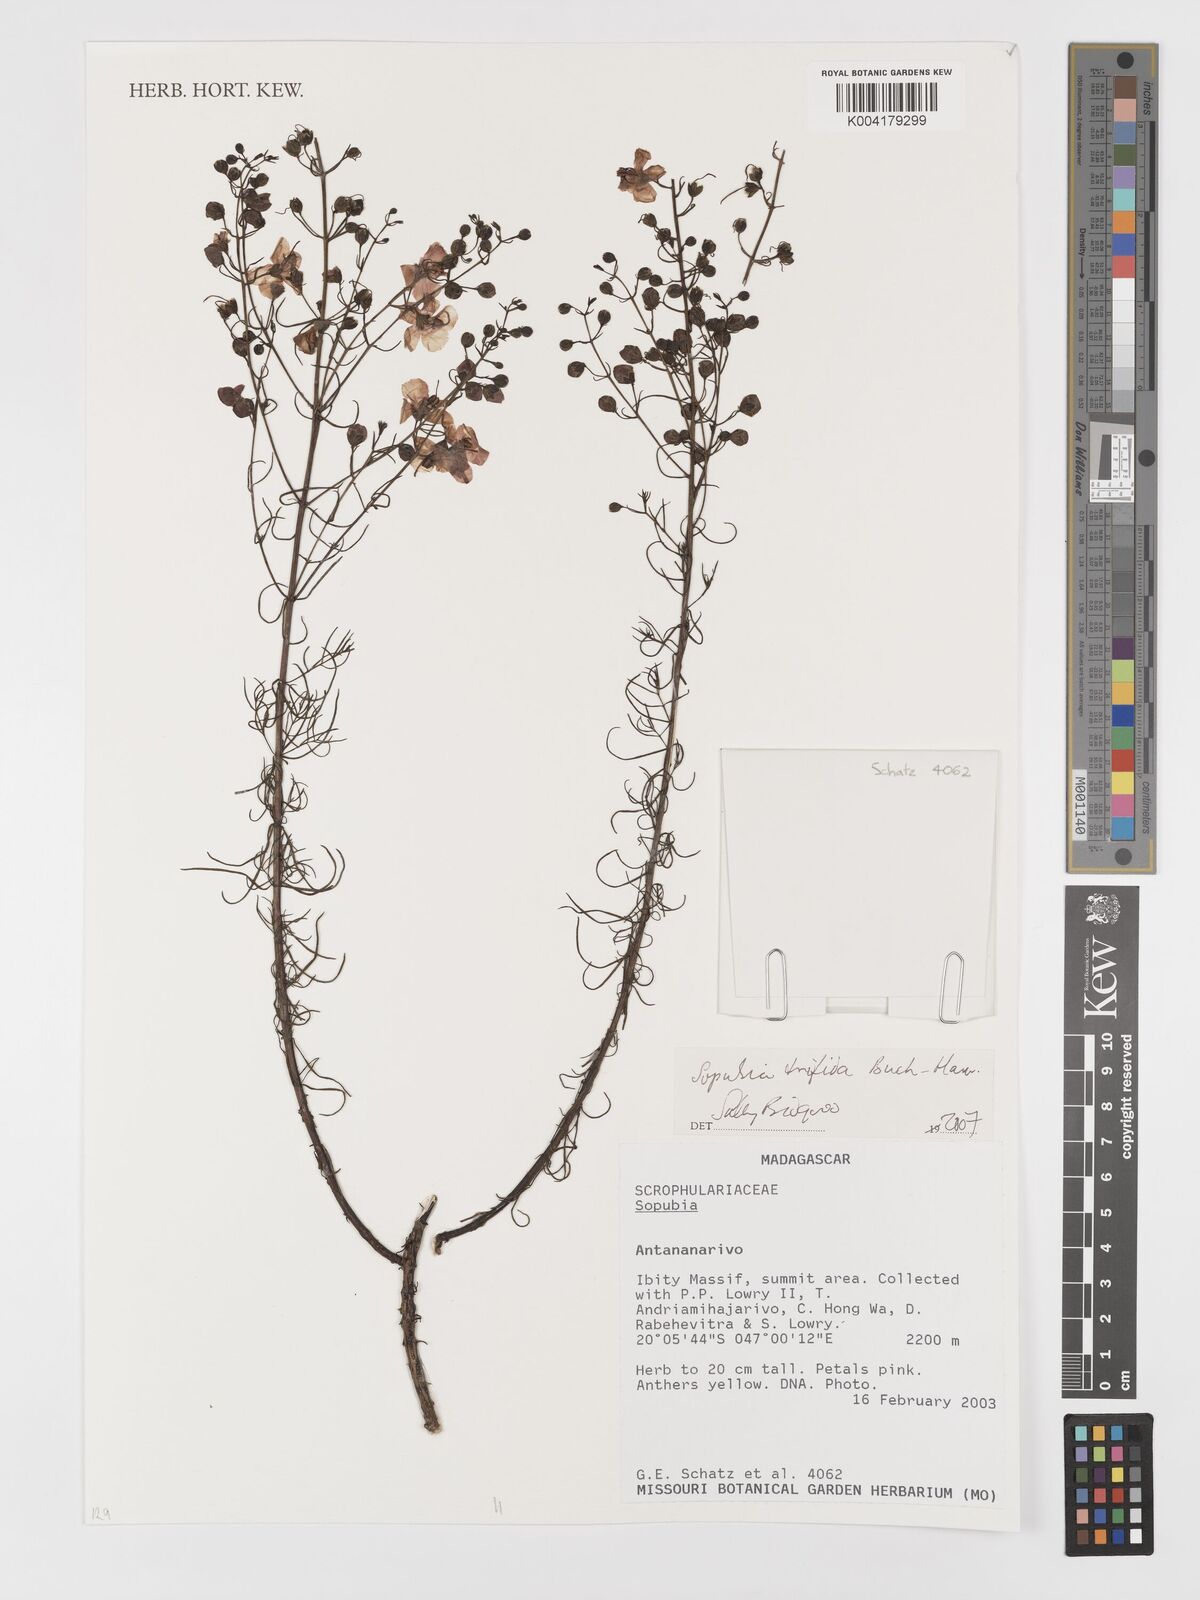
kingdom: Plantae
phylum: Tracheophyta
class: Magnoliopsida
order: Lamiales
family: Orobanchaceae
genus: Sopubia
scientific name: Sopubia trifida
